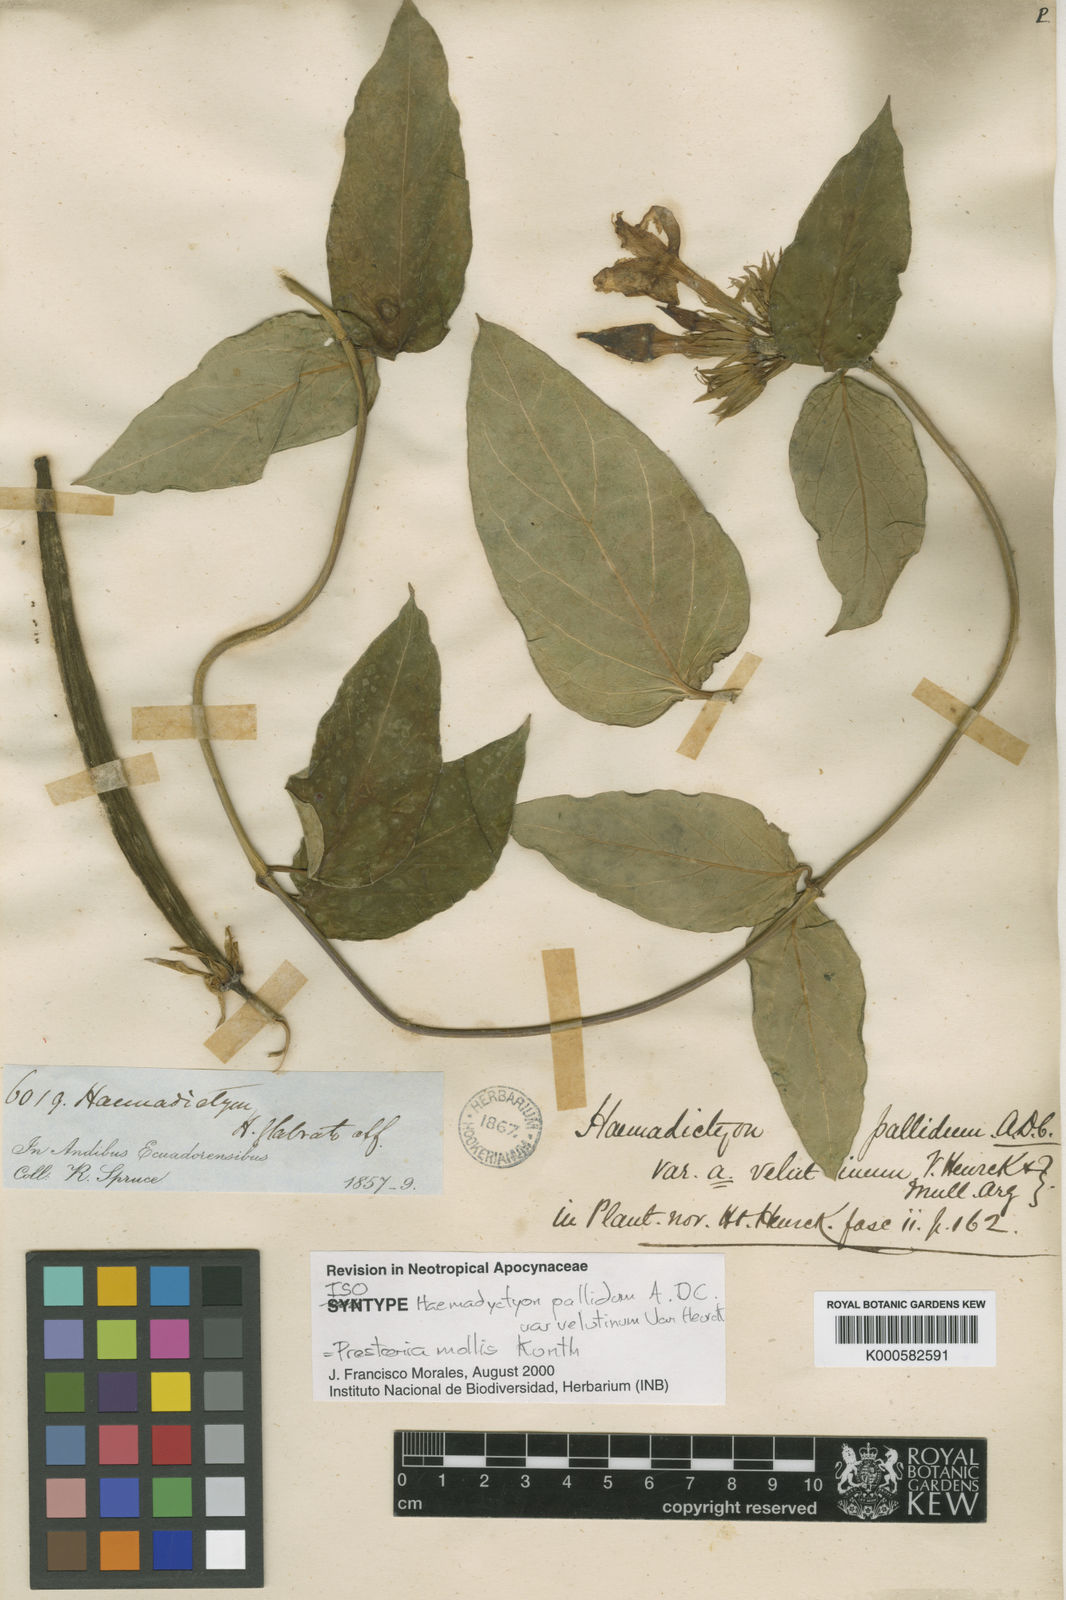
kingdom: Plantae
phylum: Tracheophyta
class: Magnoliopsida
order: Gentianales
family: Apocynaceae
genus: Prestonia
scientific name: Prestonia mollis
